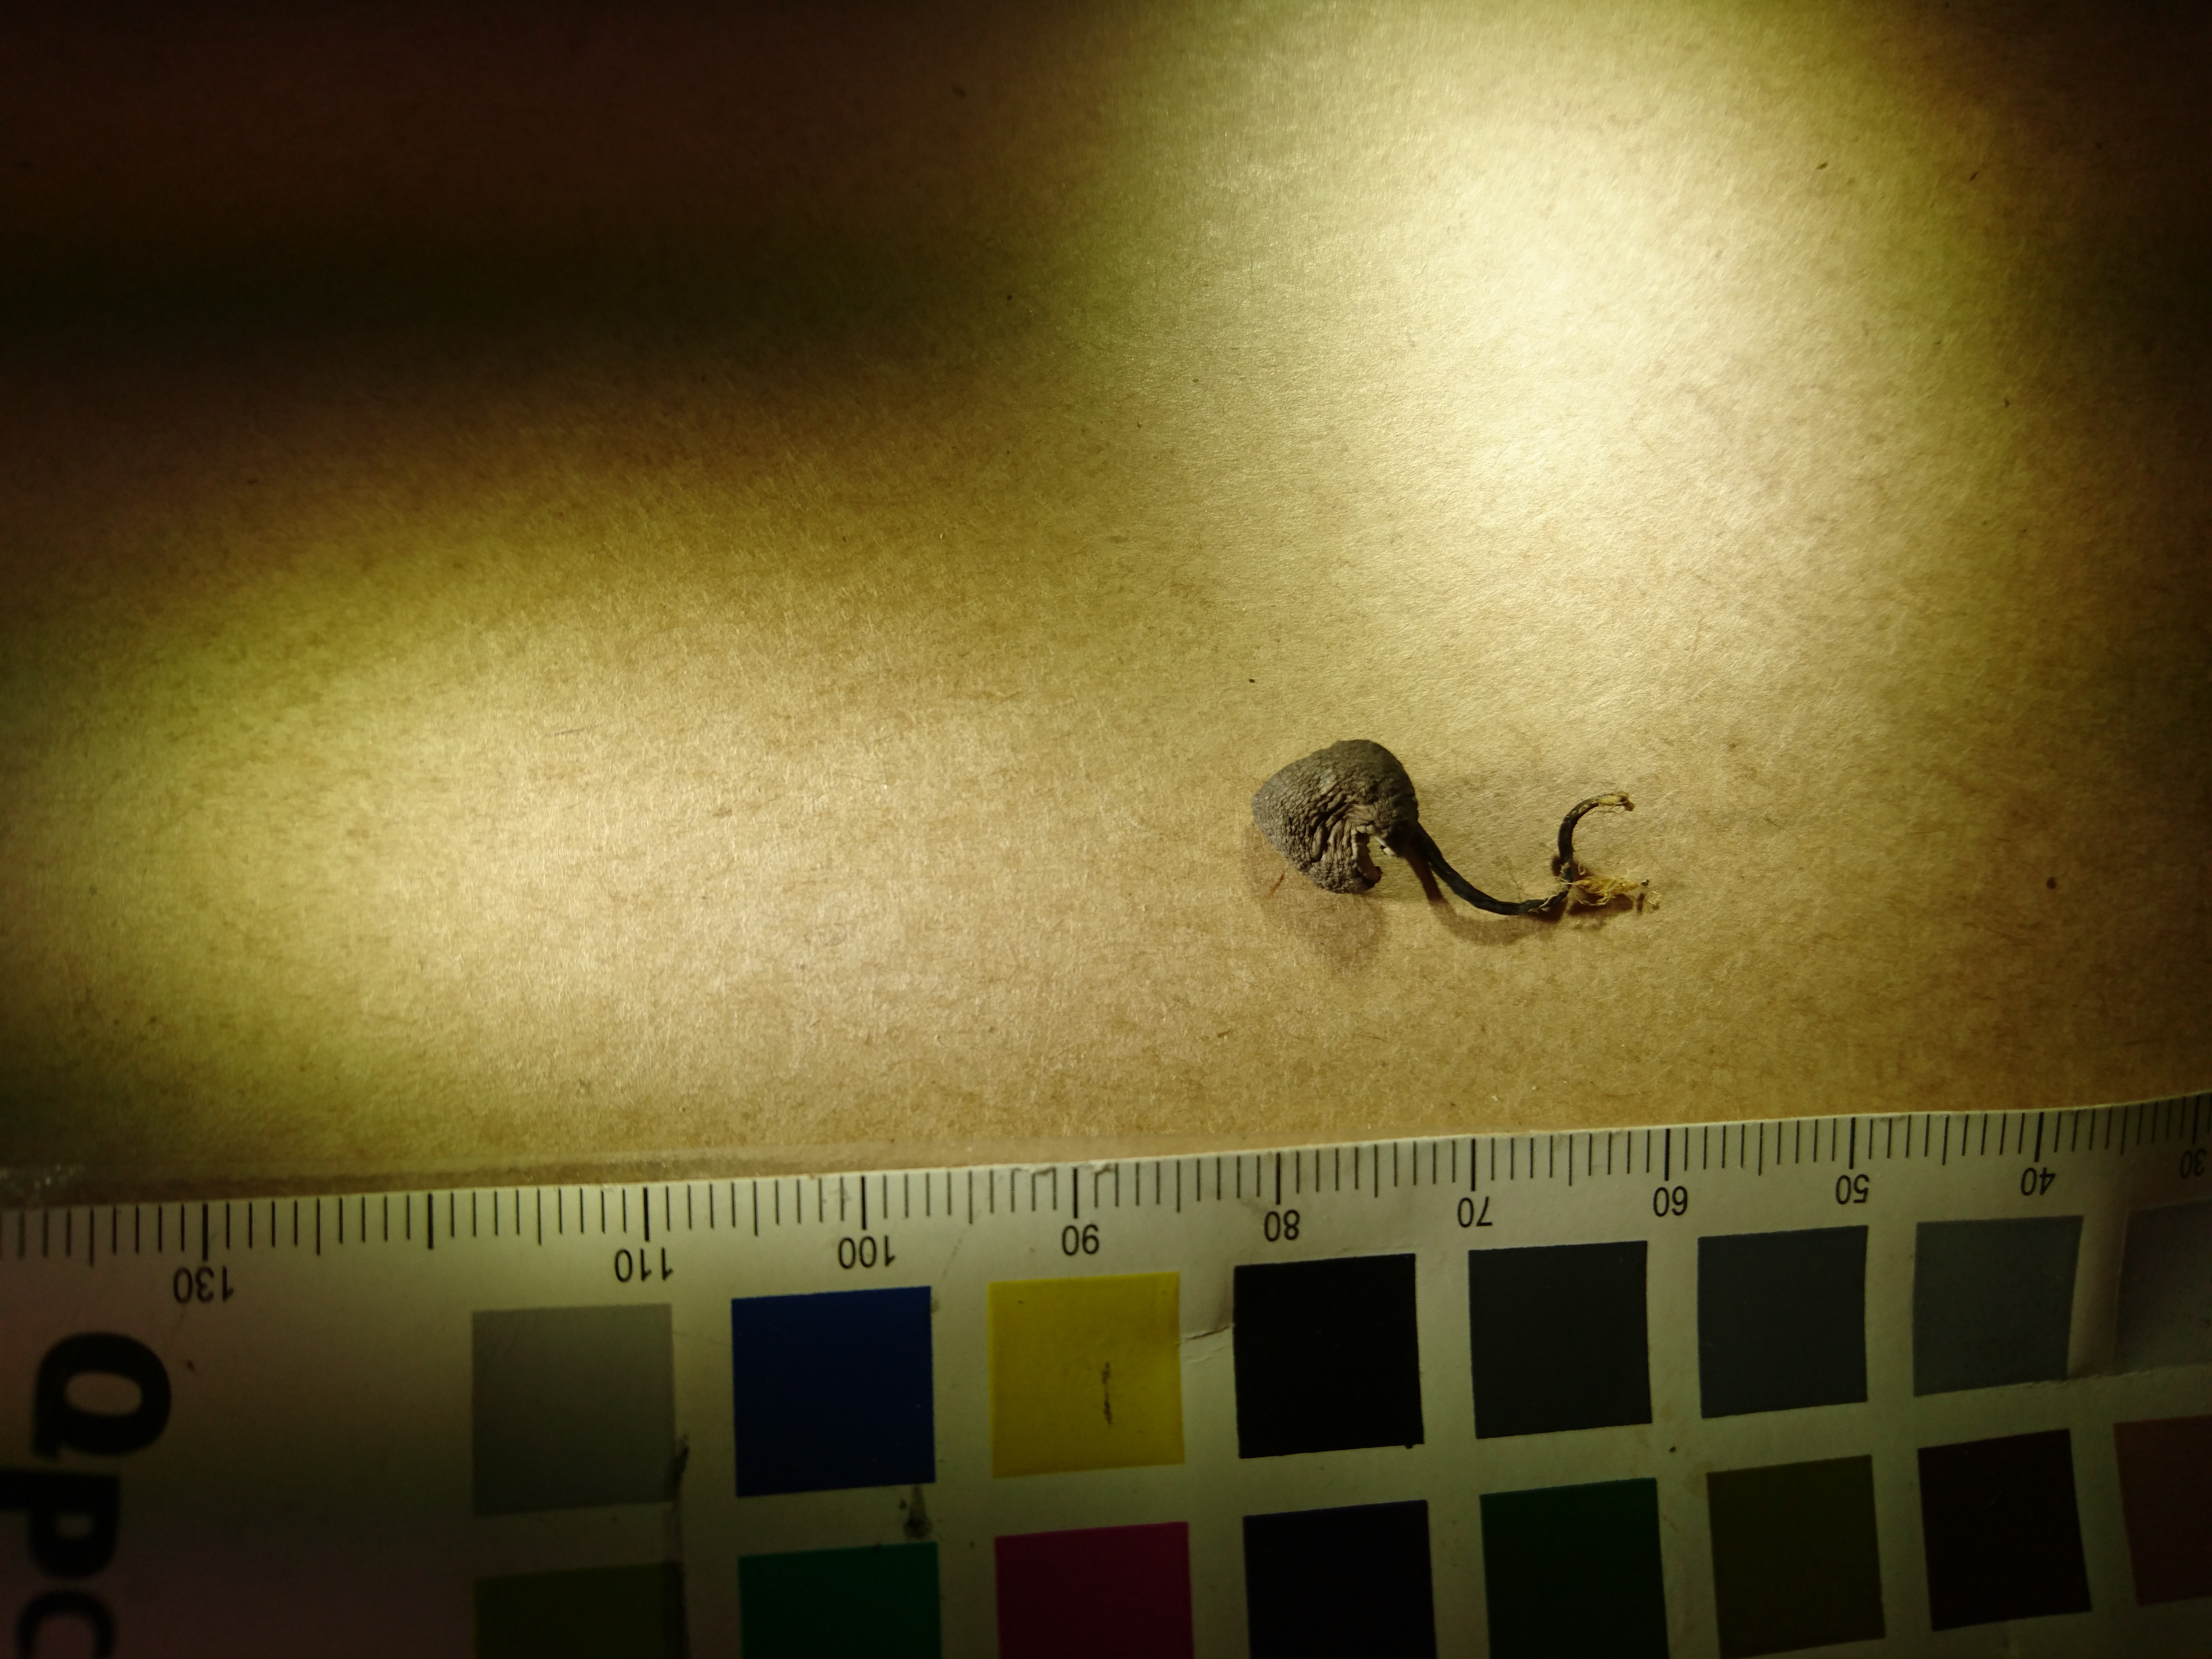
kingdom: Fungi
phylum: Basidiomycota
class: Agaricomycetes
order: Agaricales
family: Clavariaceae
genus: Camarophyllopsis
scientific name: Camarophyllopsis atrovelutina
